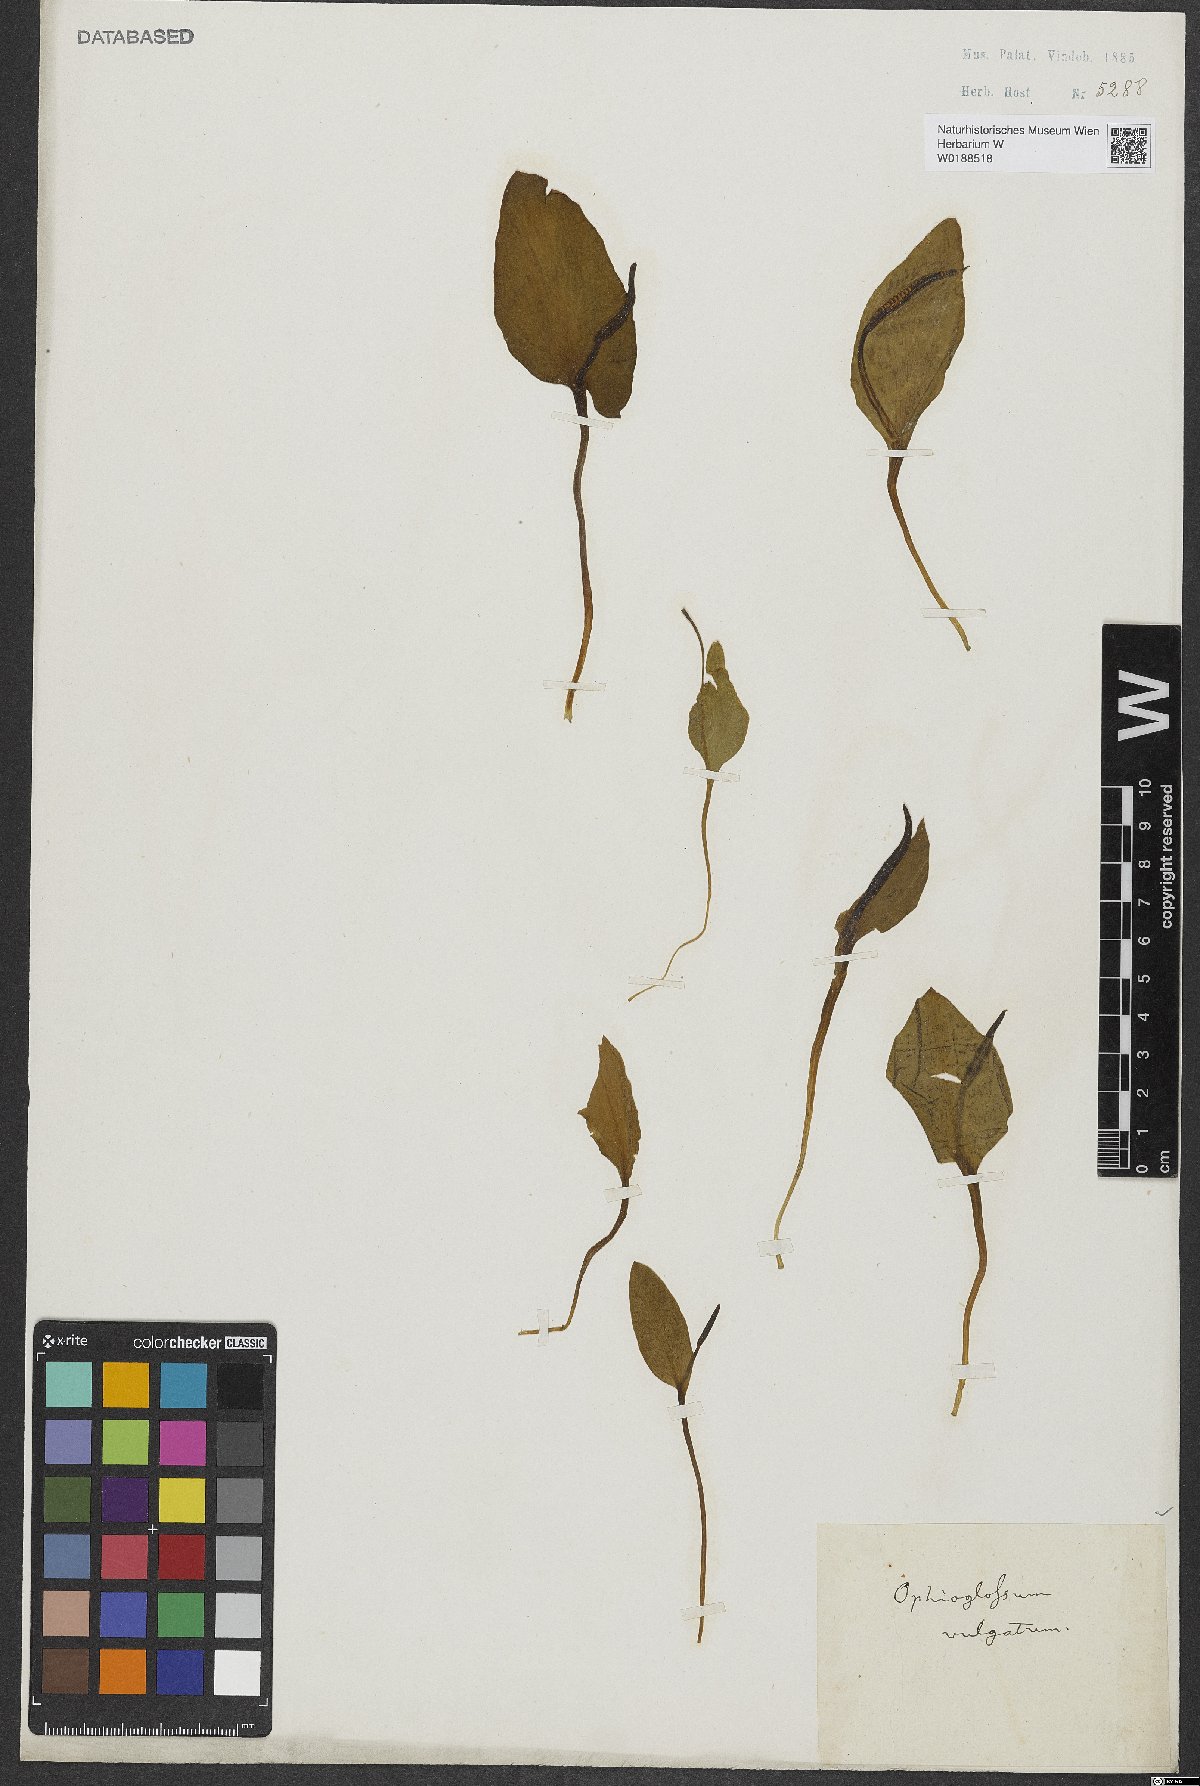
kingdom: Plantae
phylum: Tracheophyta
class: Polypodiopsida
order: Ophioglossales
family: Ophioglossaceae
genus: Ophioglossum
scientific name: Ophioglossum vulgatum
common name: Adder's-tongue
